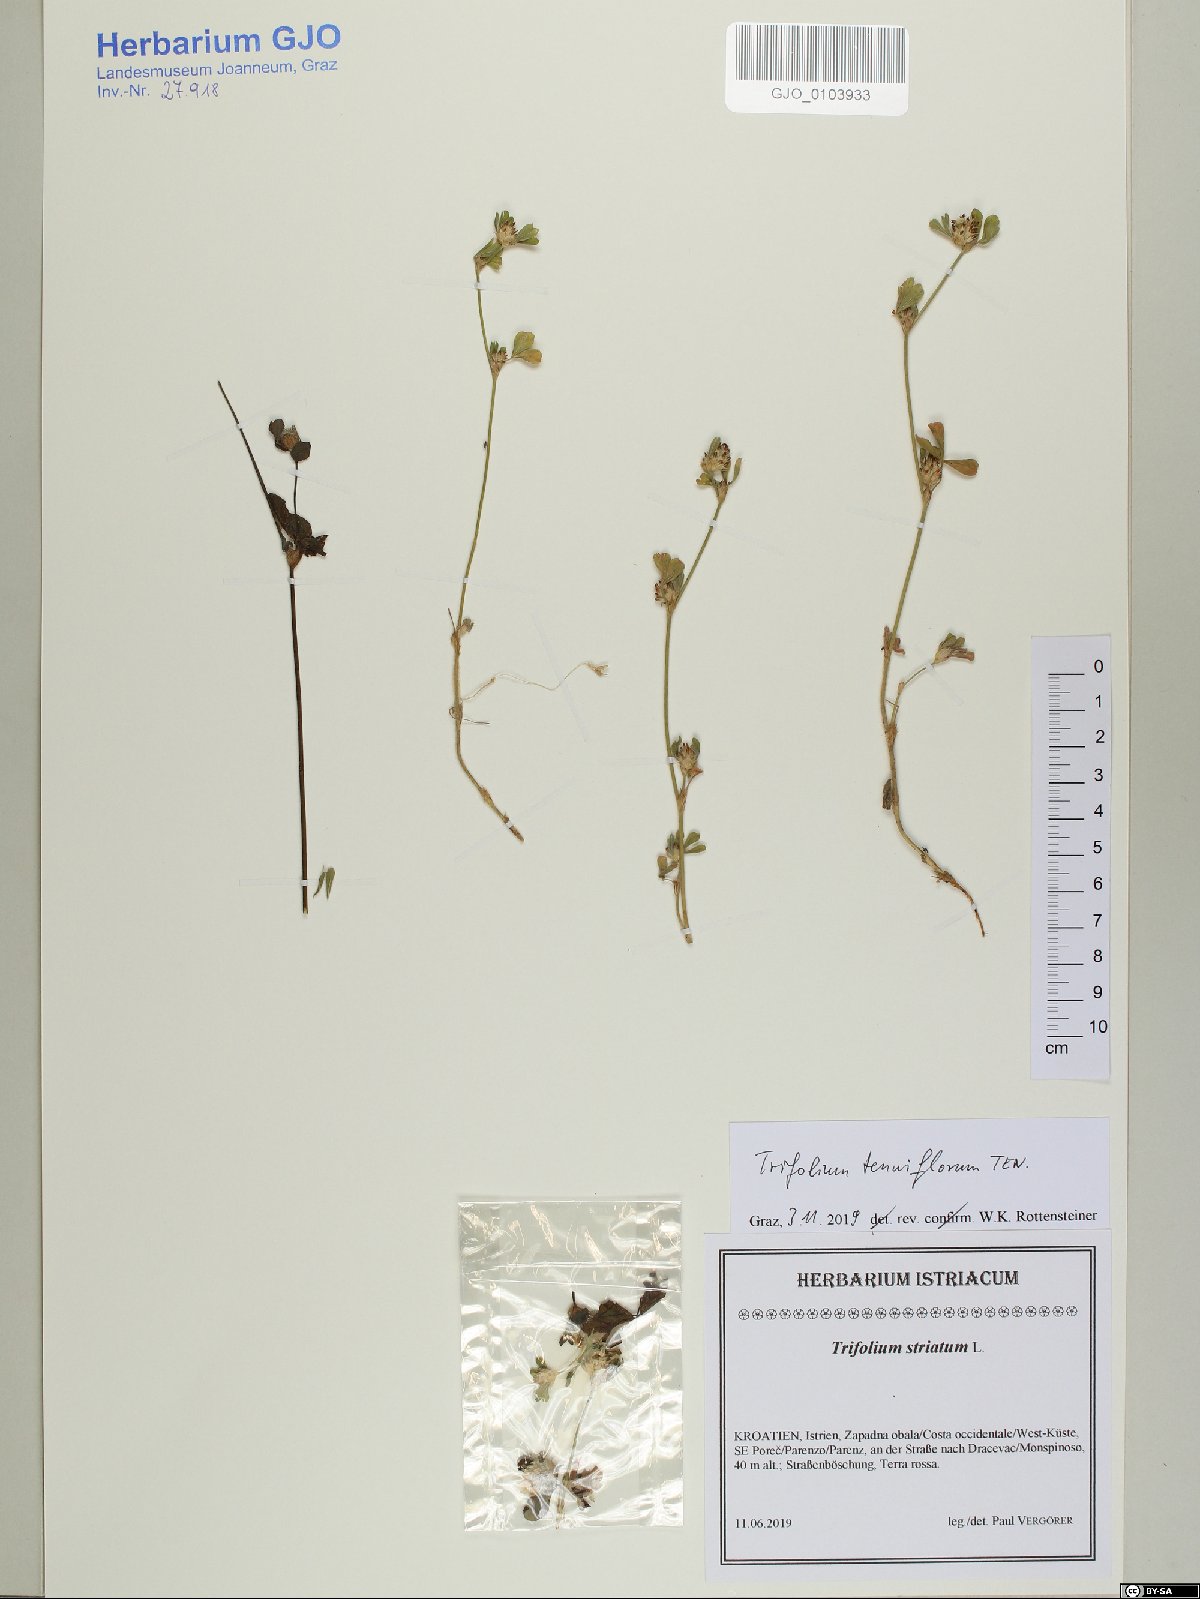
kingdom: Plantae
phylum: Tracheophyta
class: Magnoliopsida
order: Fabales
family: Fabaceae
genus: Trifolium
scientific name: Trifolium striatum
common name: Knotted clover
